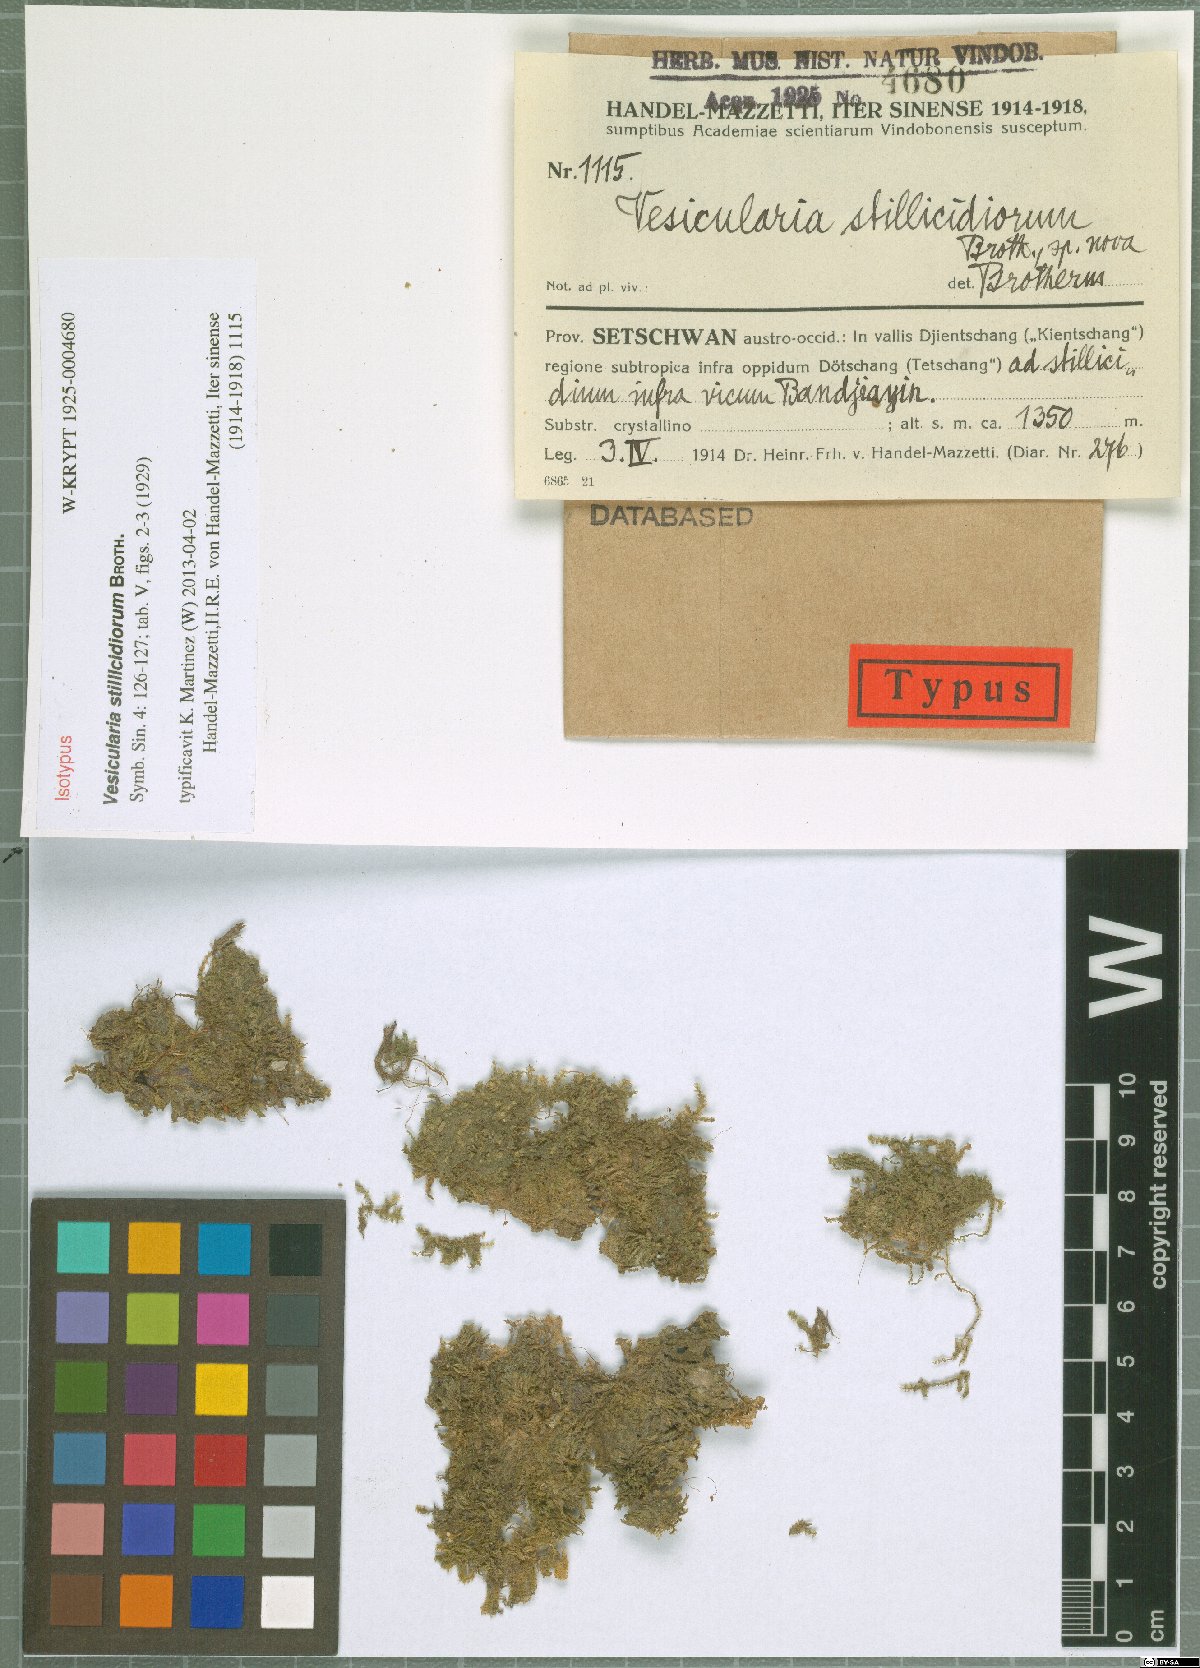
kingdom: Plantae
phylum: Bryophyta
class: Bryopsida
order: Hypnales
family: Hypnaceae
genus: Vesicularia
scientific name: Vesicularia stillicidiorum
